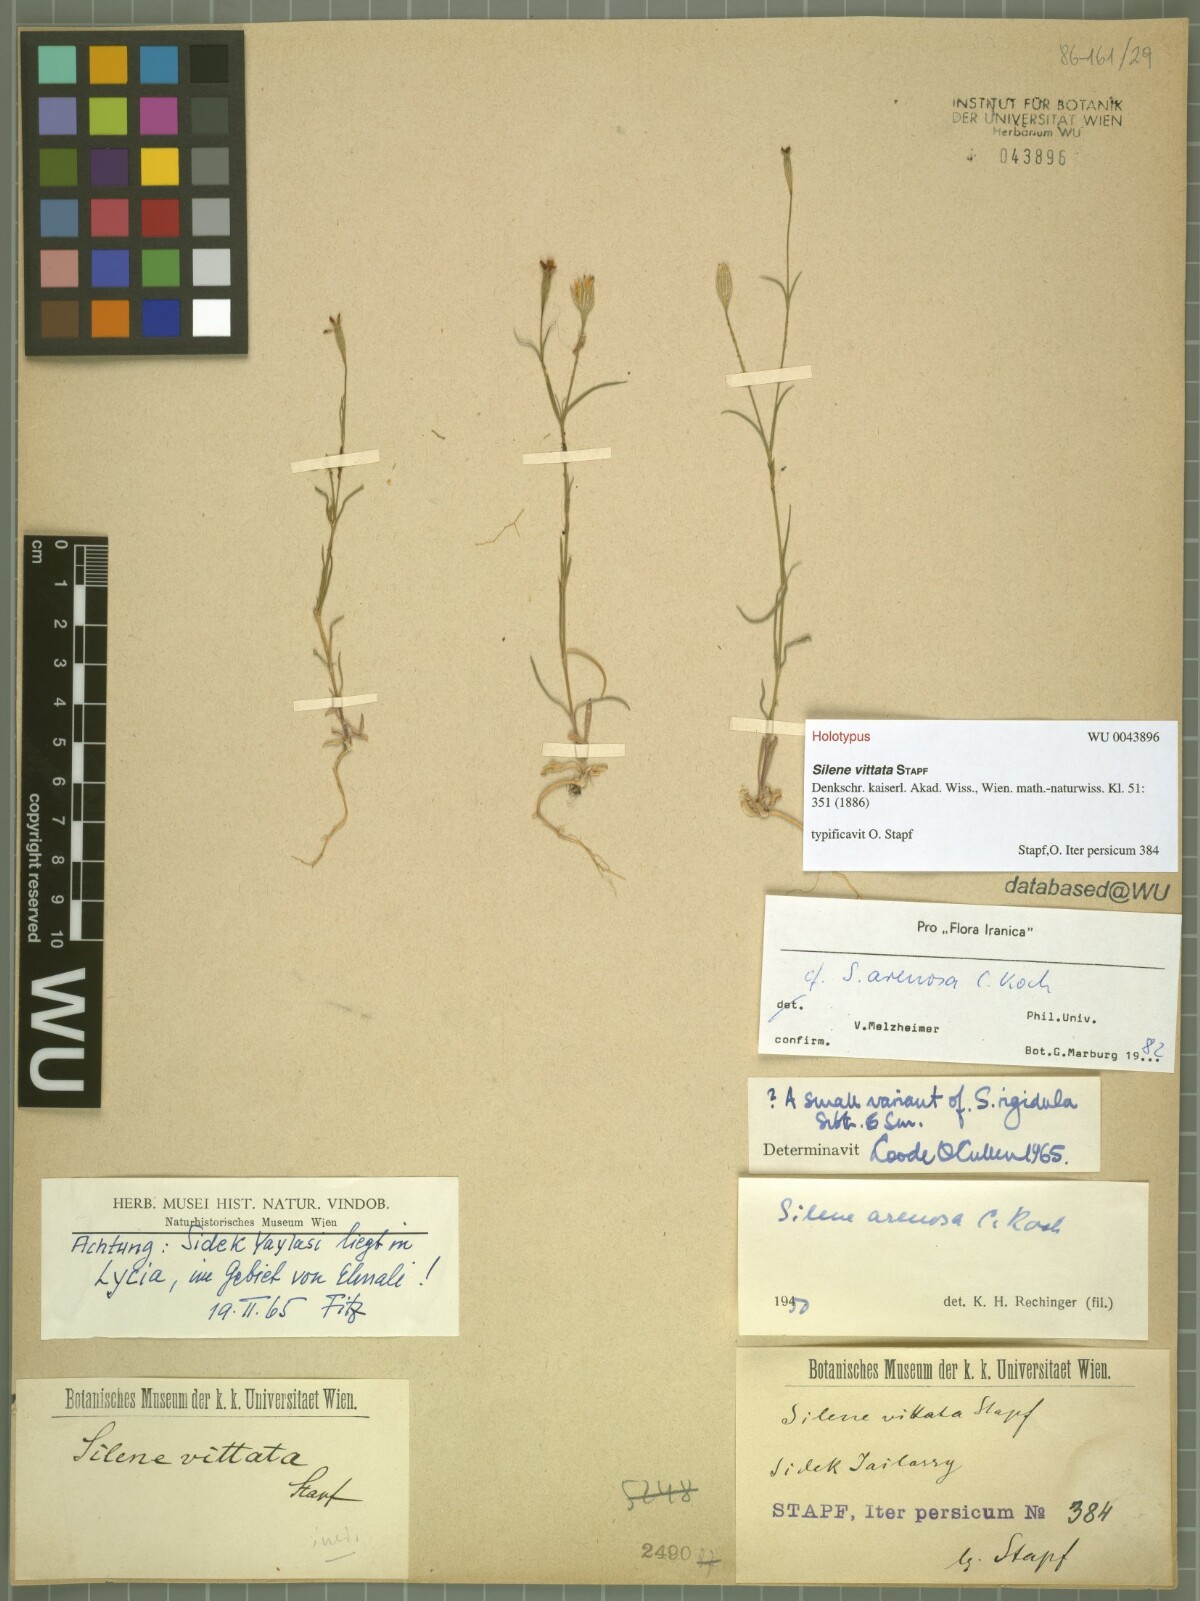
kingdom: Plantae
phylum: Tracheophyta
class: Magnoliopsida
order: Caryophyllales
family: Caryophyllaceae
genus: Silene
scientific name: Silene vittata
